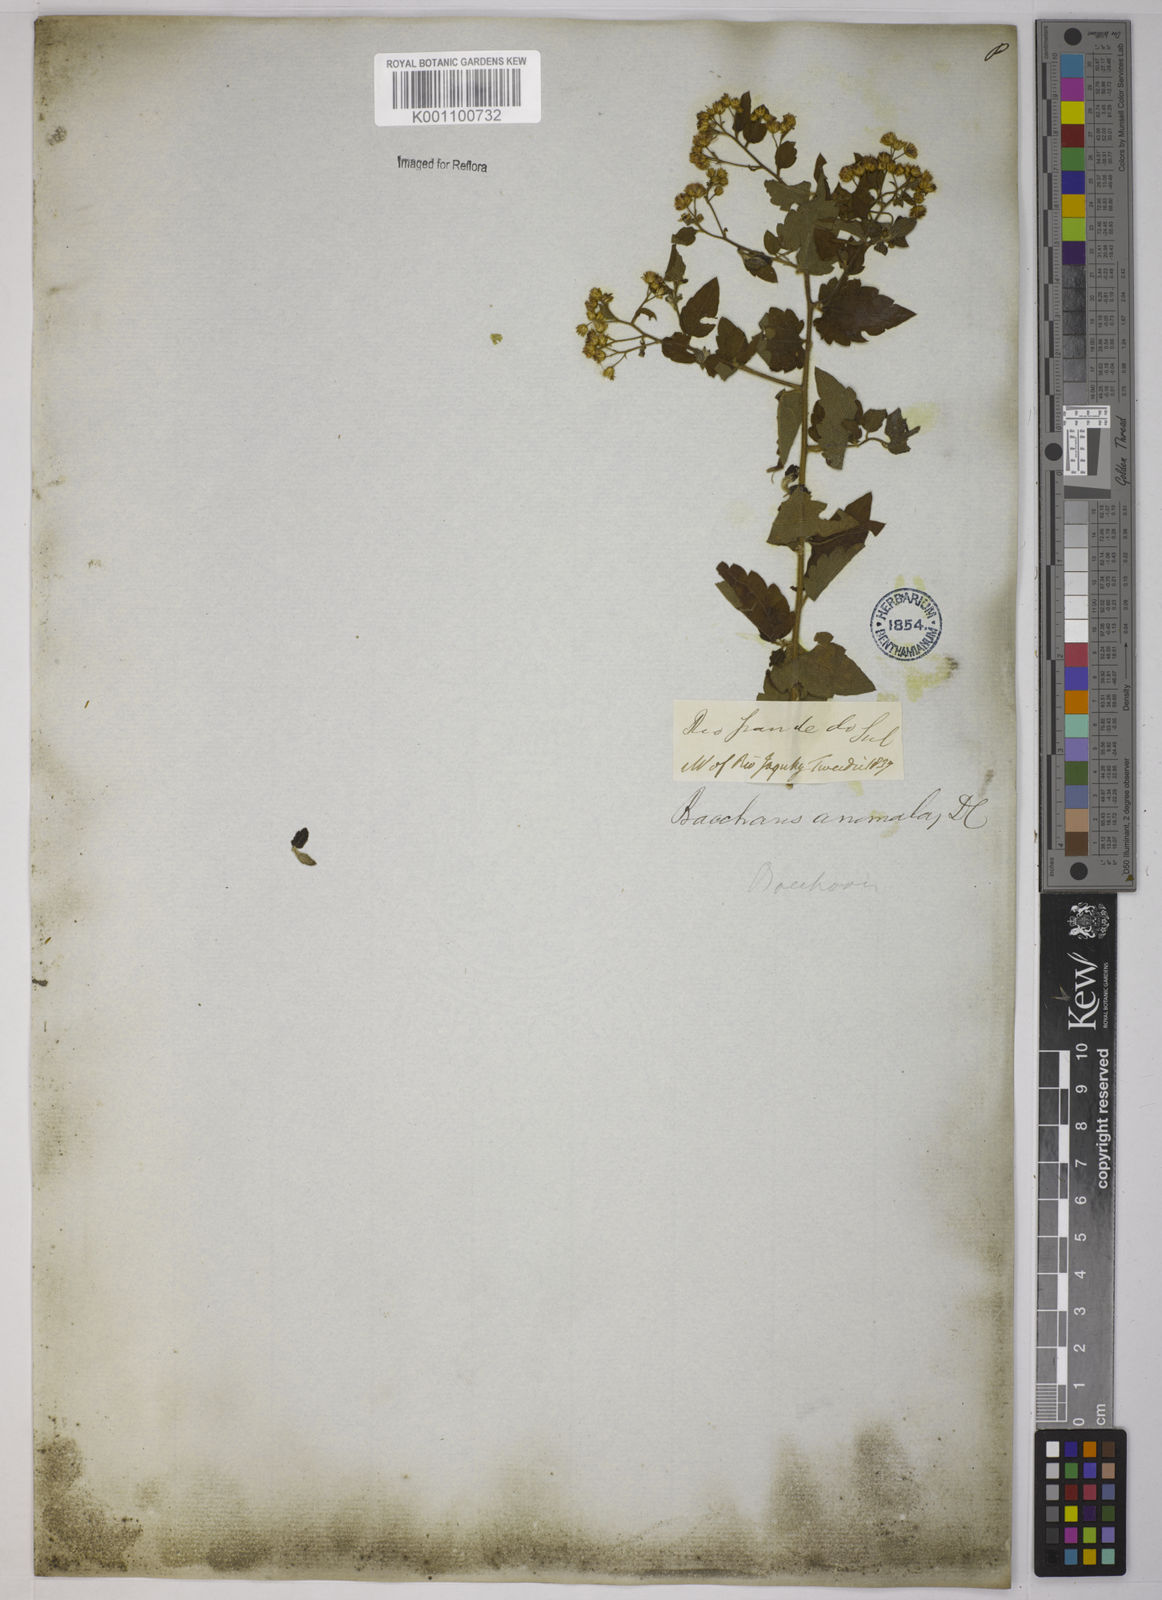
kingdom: Plantae
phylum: Tracheophyta
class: Magnoliopsida
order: Asterales
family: Asteraceae
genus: Baccharis
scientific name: Baccharis anomala
